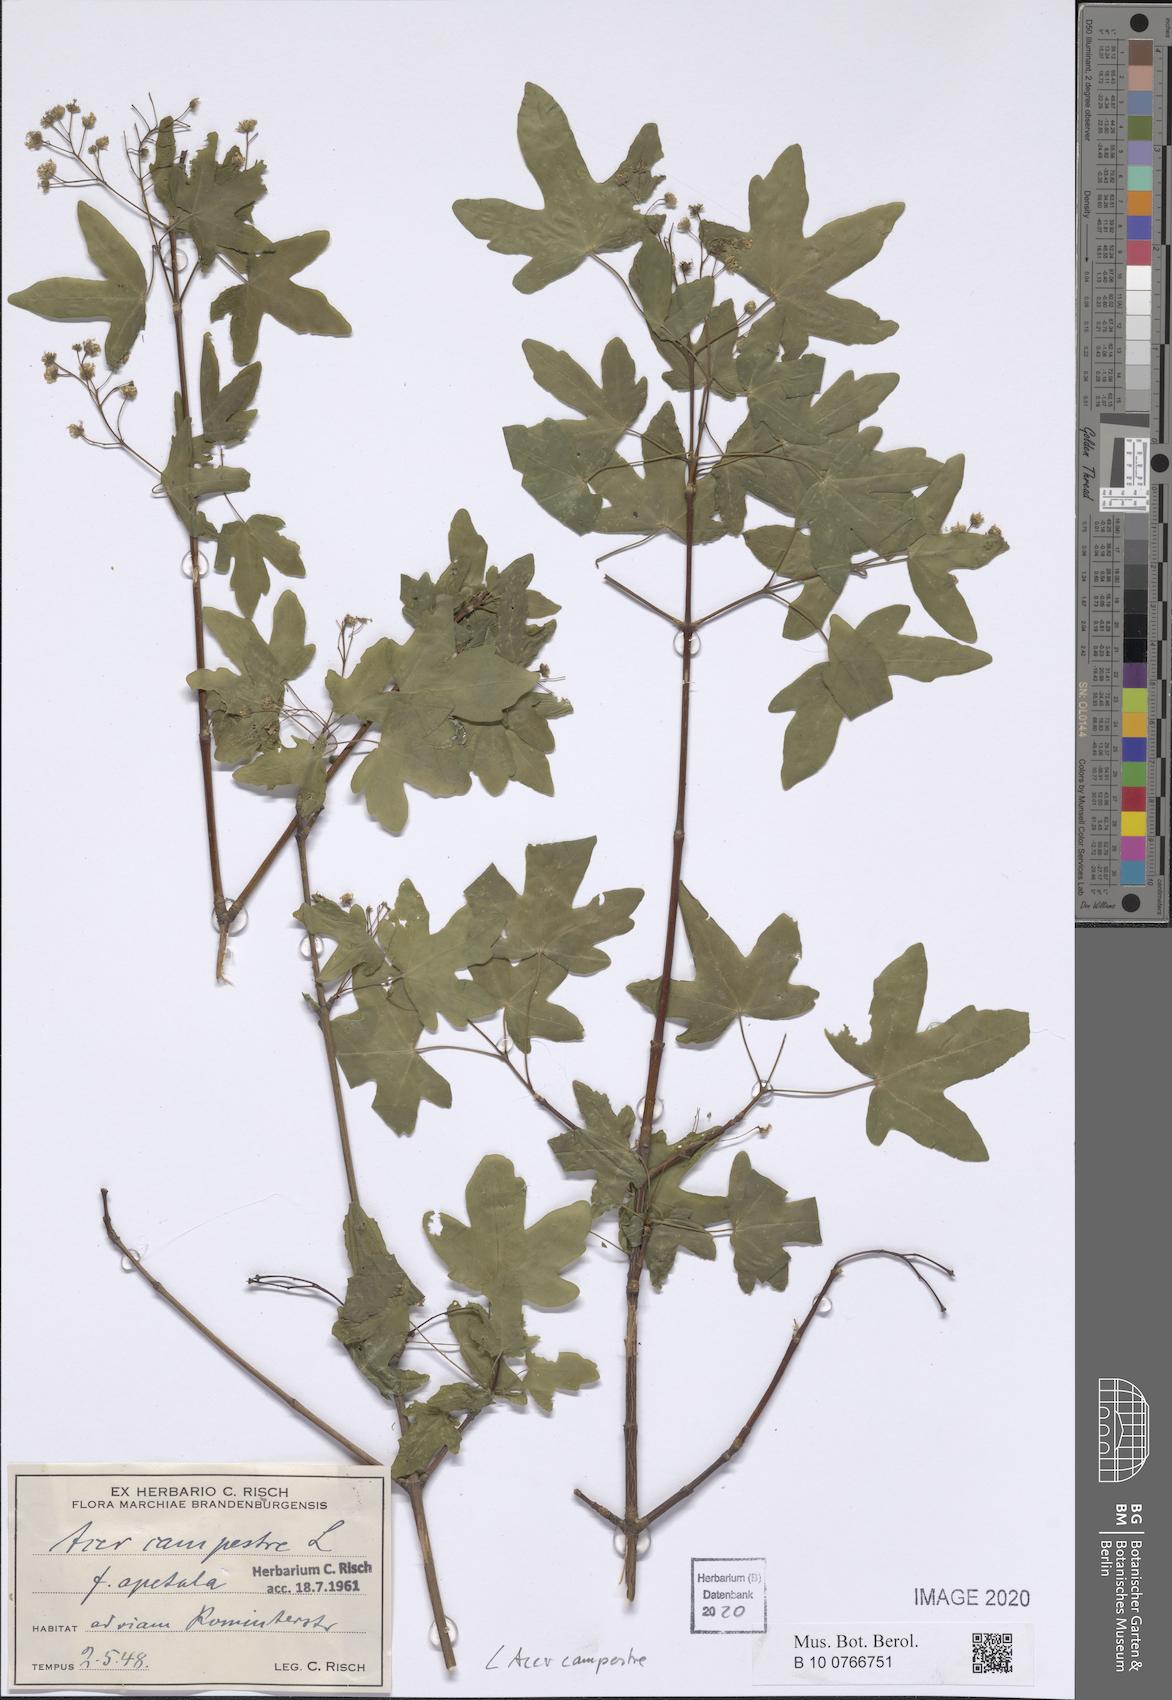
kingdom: Plantae
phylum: Tracheophyta
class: Magnoliopsida
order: Sapindales
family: Sapindaceae
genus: Acer
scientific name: Acer campestre
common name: Field maple
